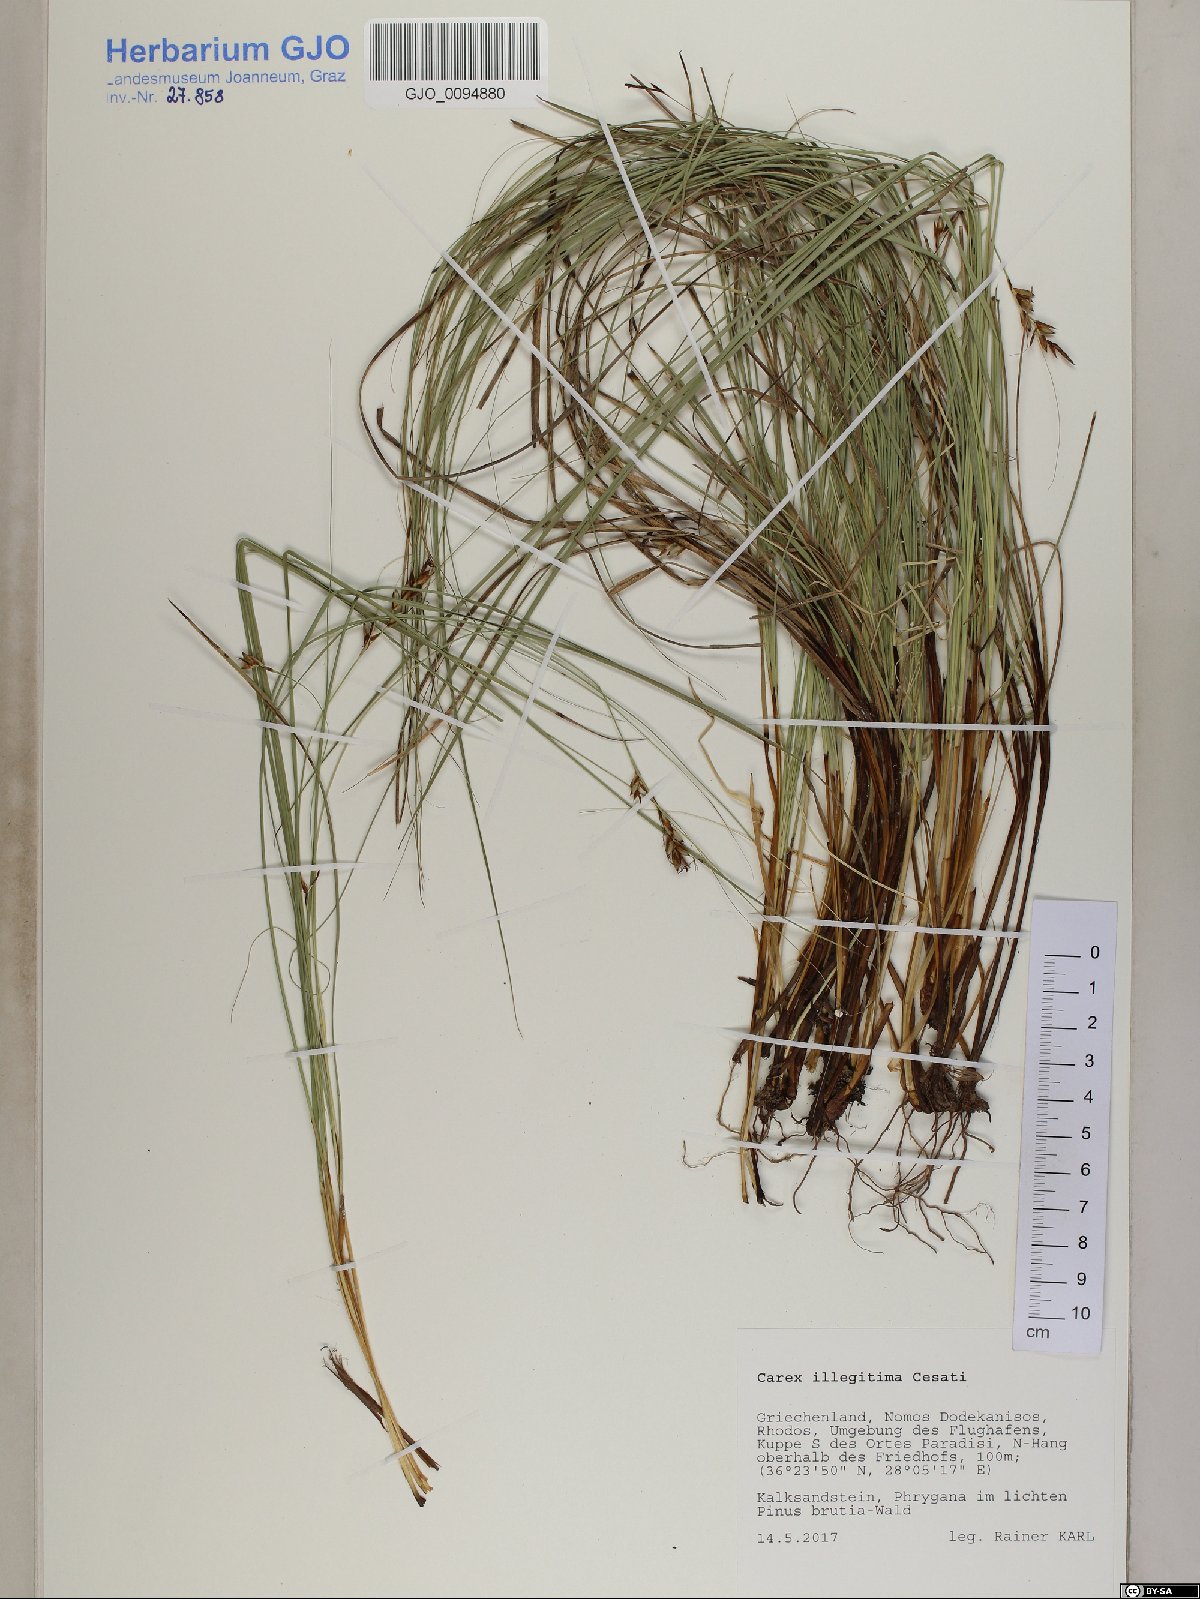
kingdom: Plantae
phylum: Tracheophyta
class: Liliopsida
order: Poales
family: Cyperaceae
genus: Carex
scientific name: Carex illegitima
